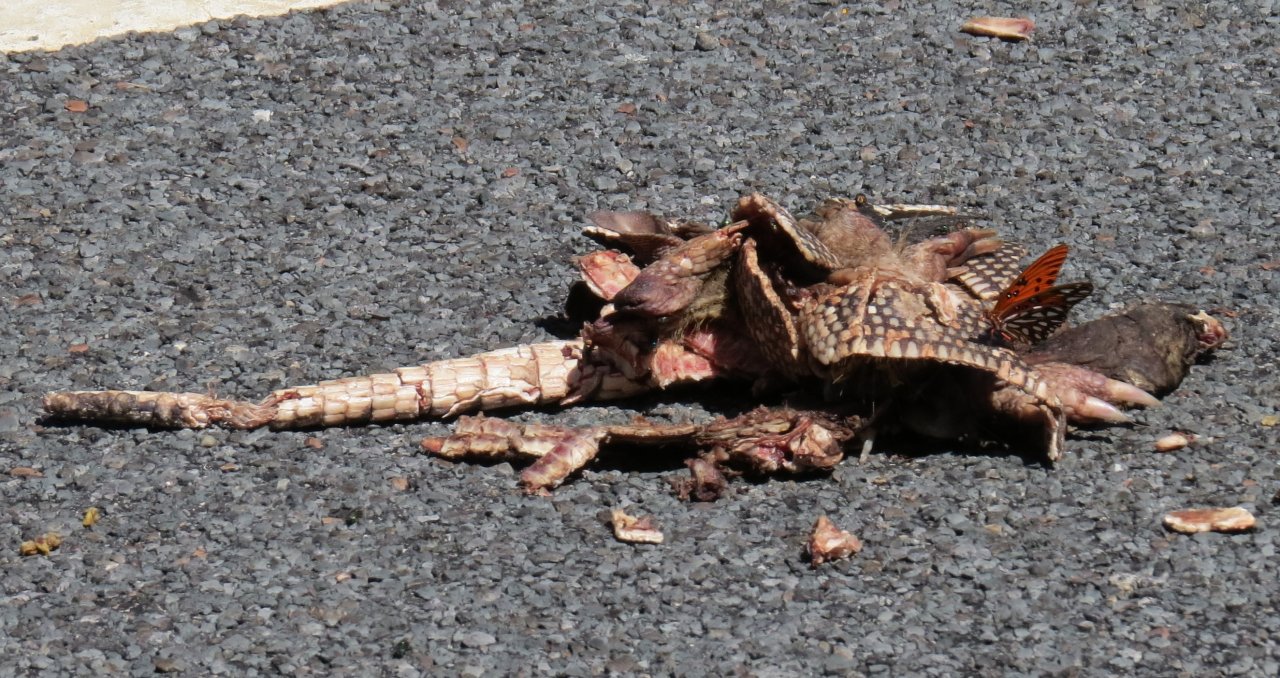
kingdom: Animalia
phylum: Arthropoda
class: Insecta
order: Lepidoptera
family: Nymphalidae
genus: Dione
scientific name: Dione vanillae
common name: Gulf Fritillary
